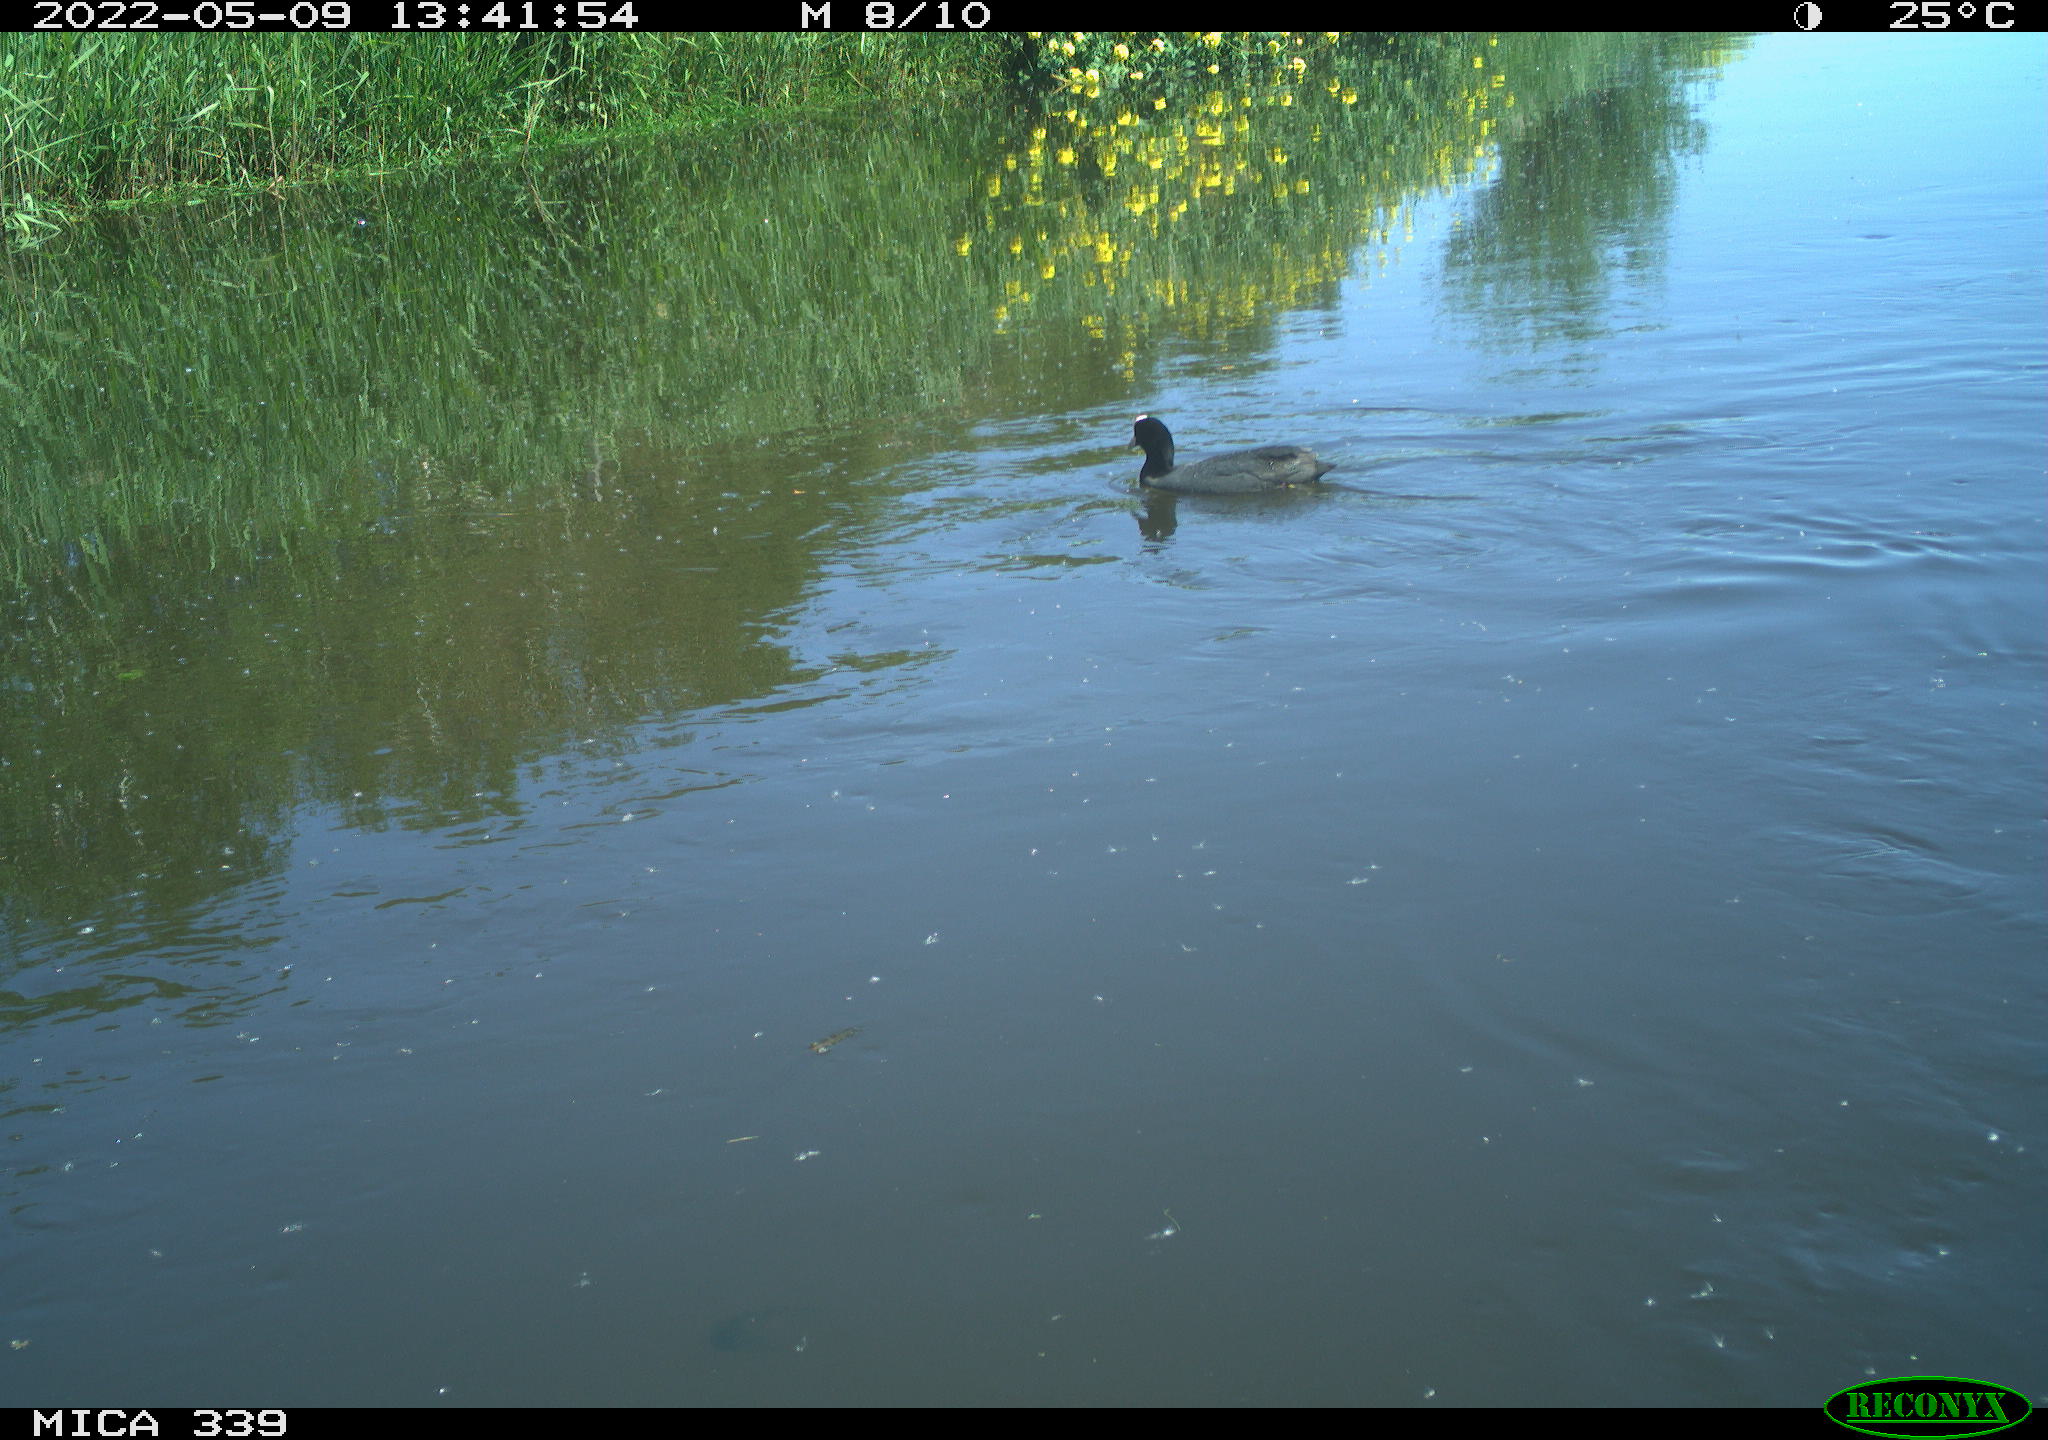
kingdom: Animalia
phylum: Chordata
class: Aves
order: Gruiformes
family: Rallidae
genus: Fulica
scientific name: Fulica atra
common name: Eurasian coot
